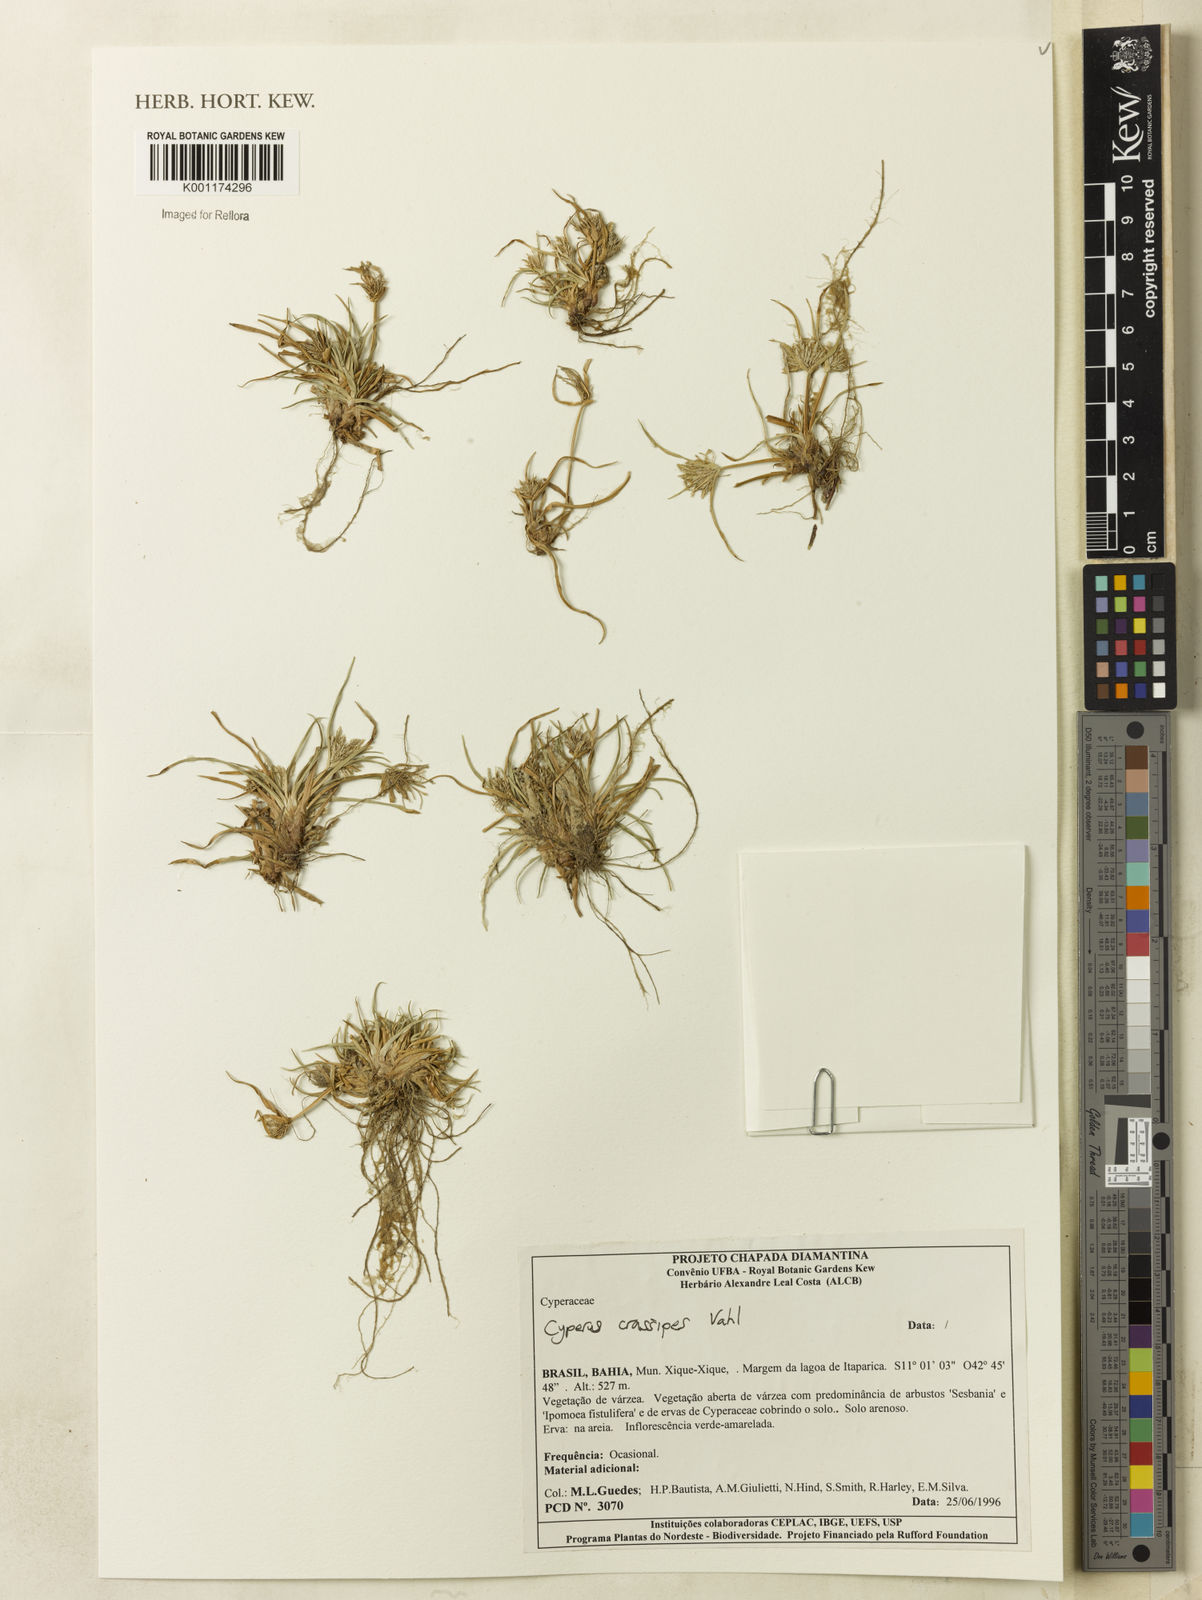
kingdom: Plantae
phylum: Tracheophyta
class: Liliopsida
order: Poales
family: Cyperaceae
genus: Cyperus
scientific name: Cyperus polystachyos
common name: Bunchy flat sedge
